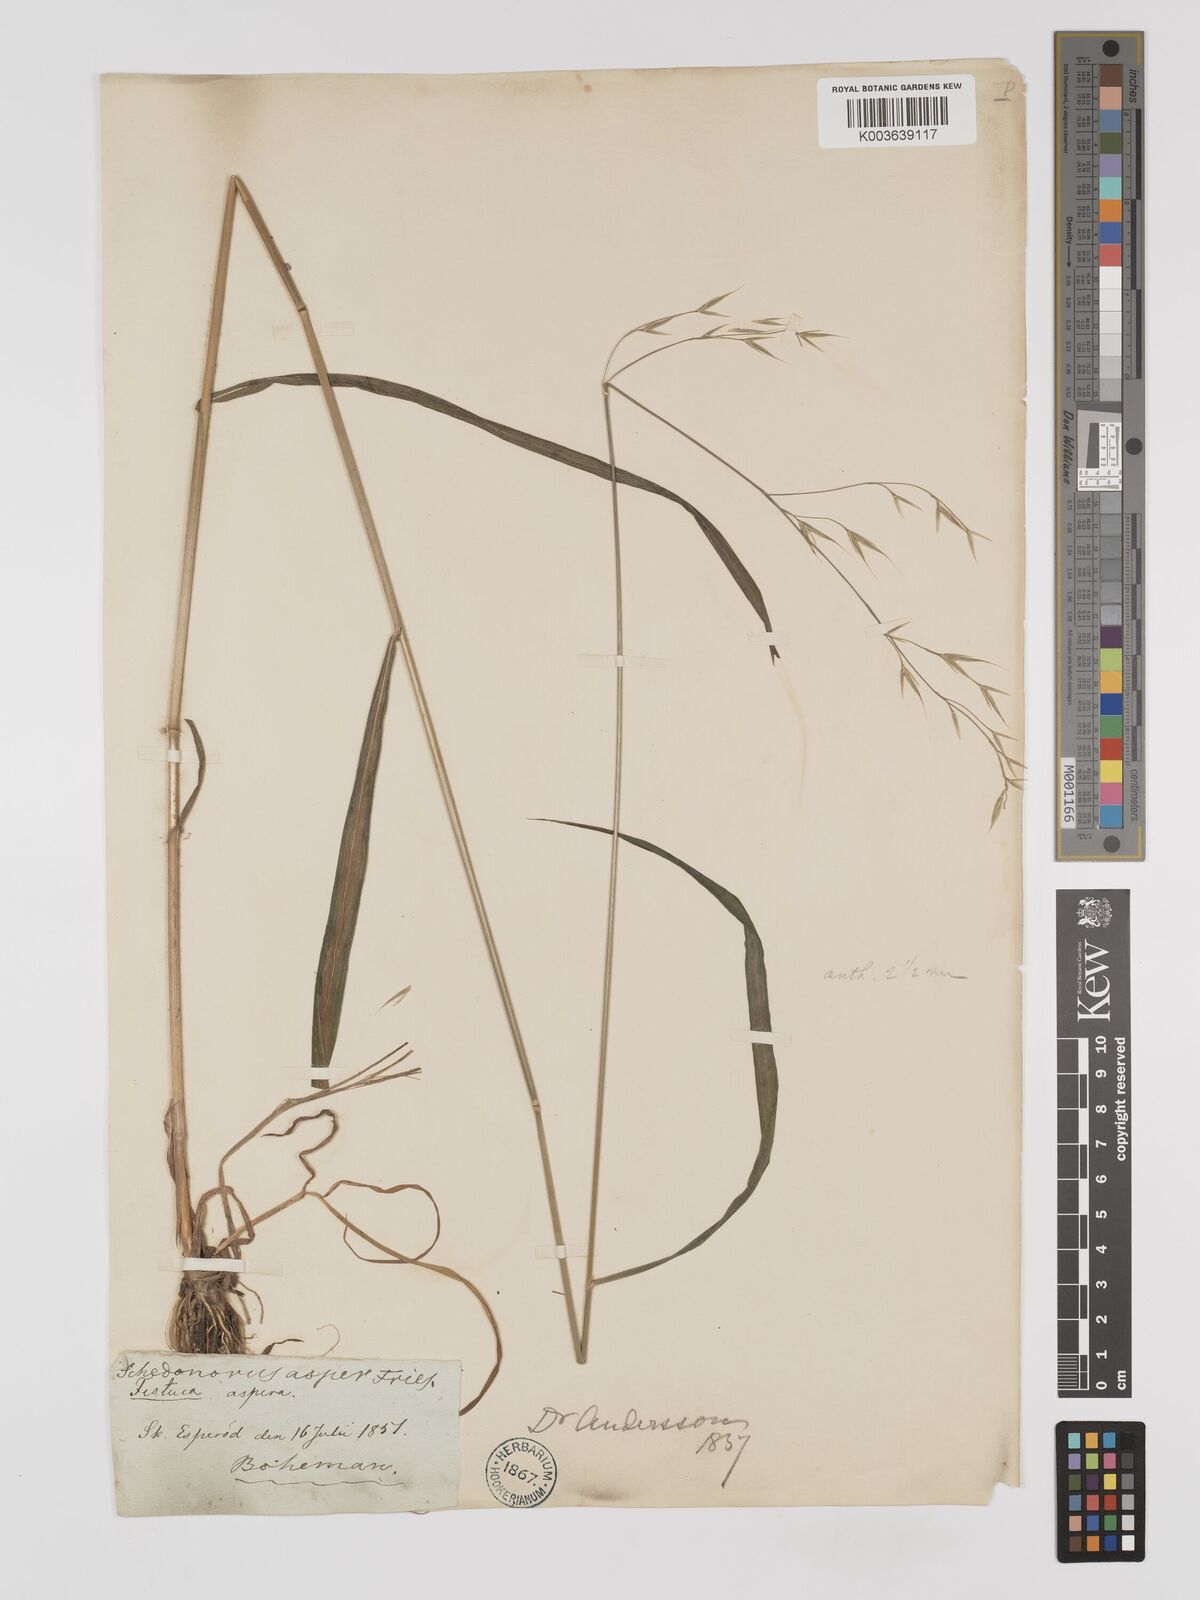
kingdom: Plantae
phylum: Tracheophyta
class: Liliopsida
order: Poales
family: Poaceae
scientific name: Poaceae
